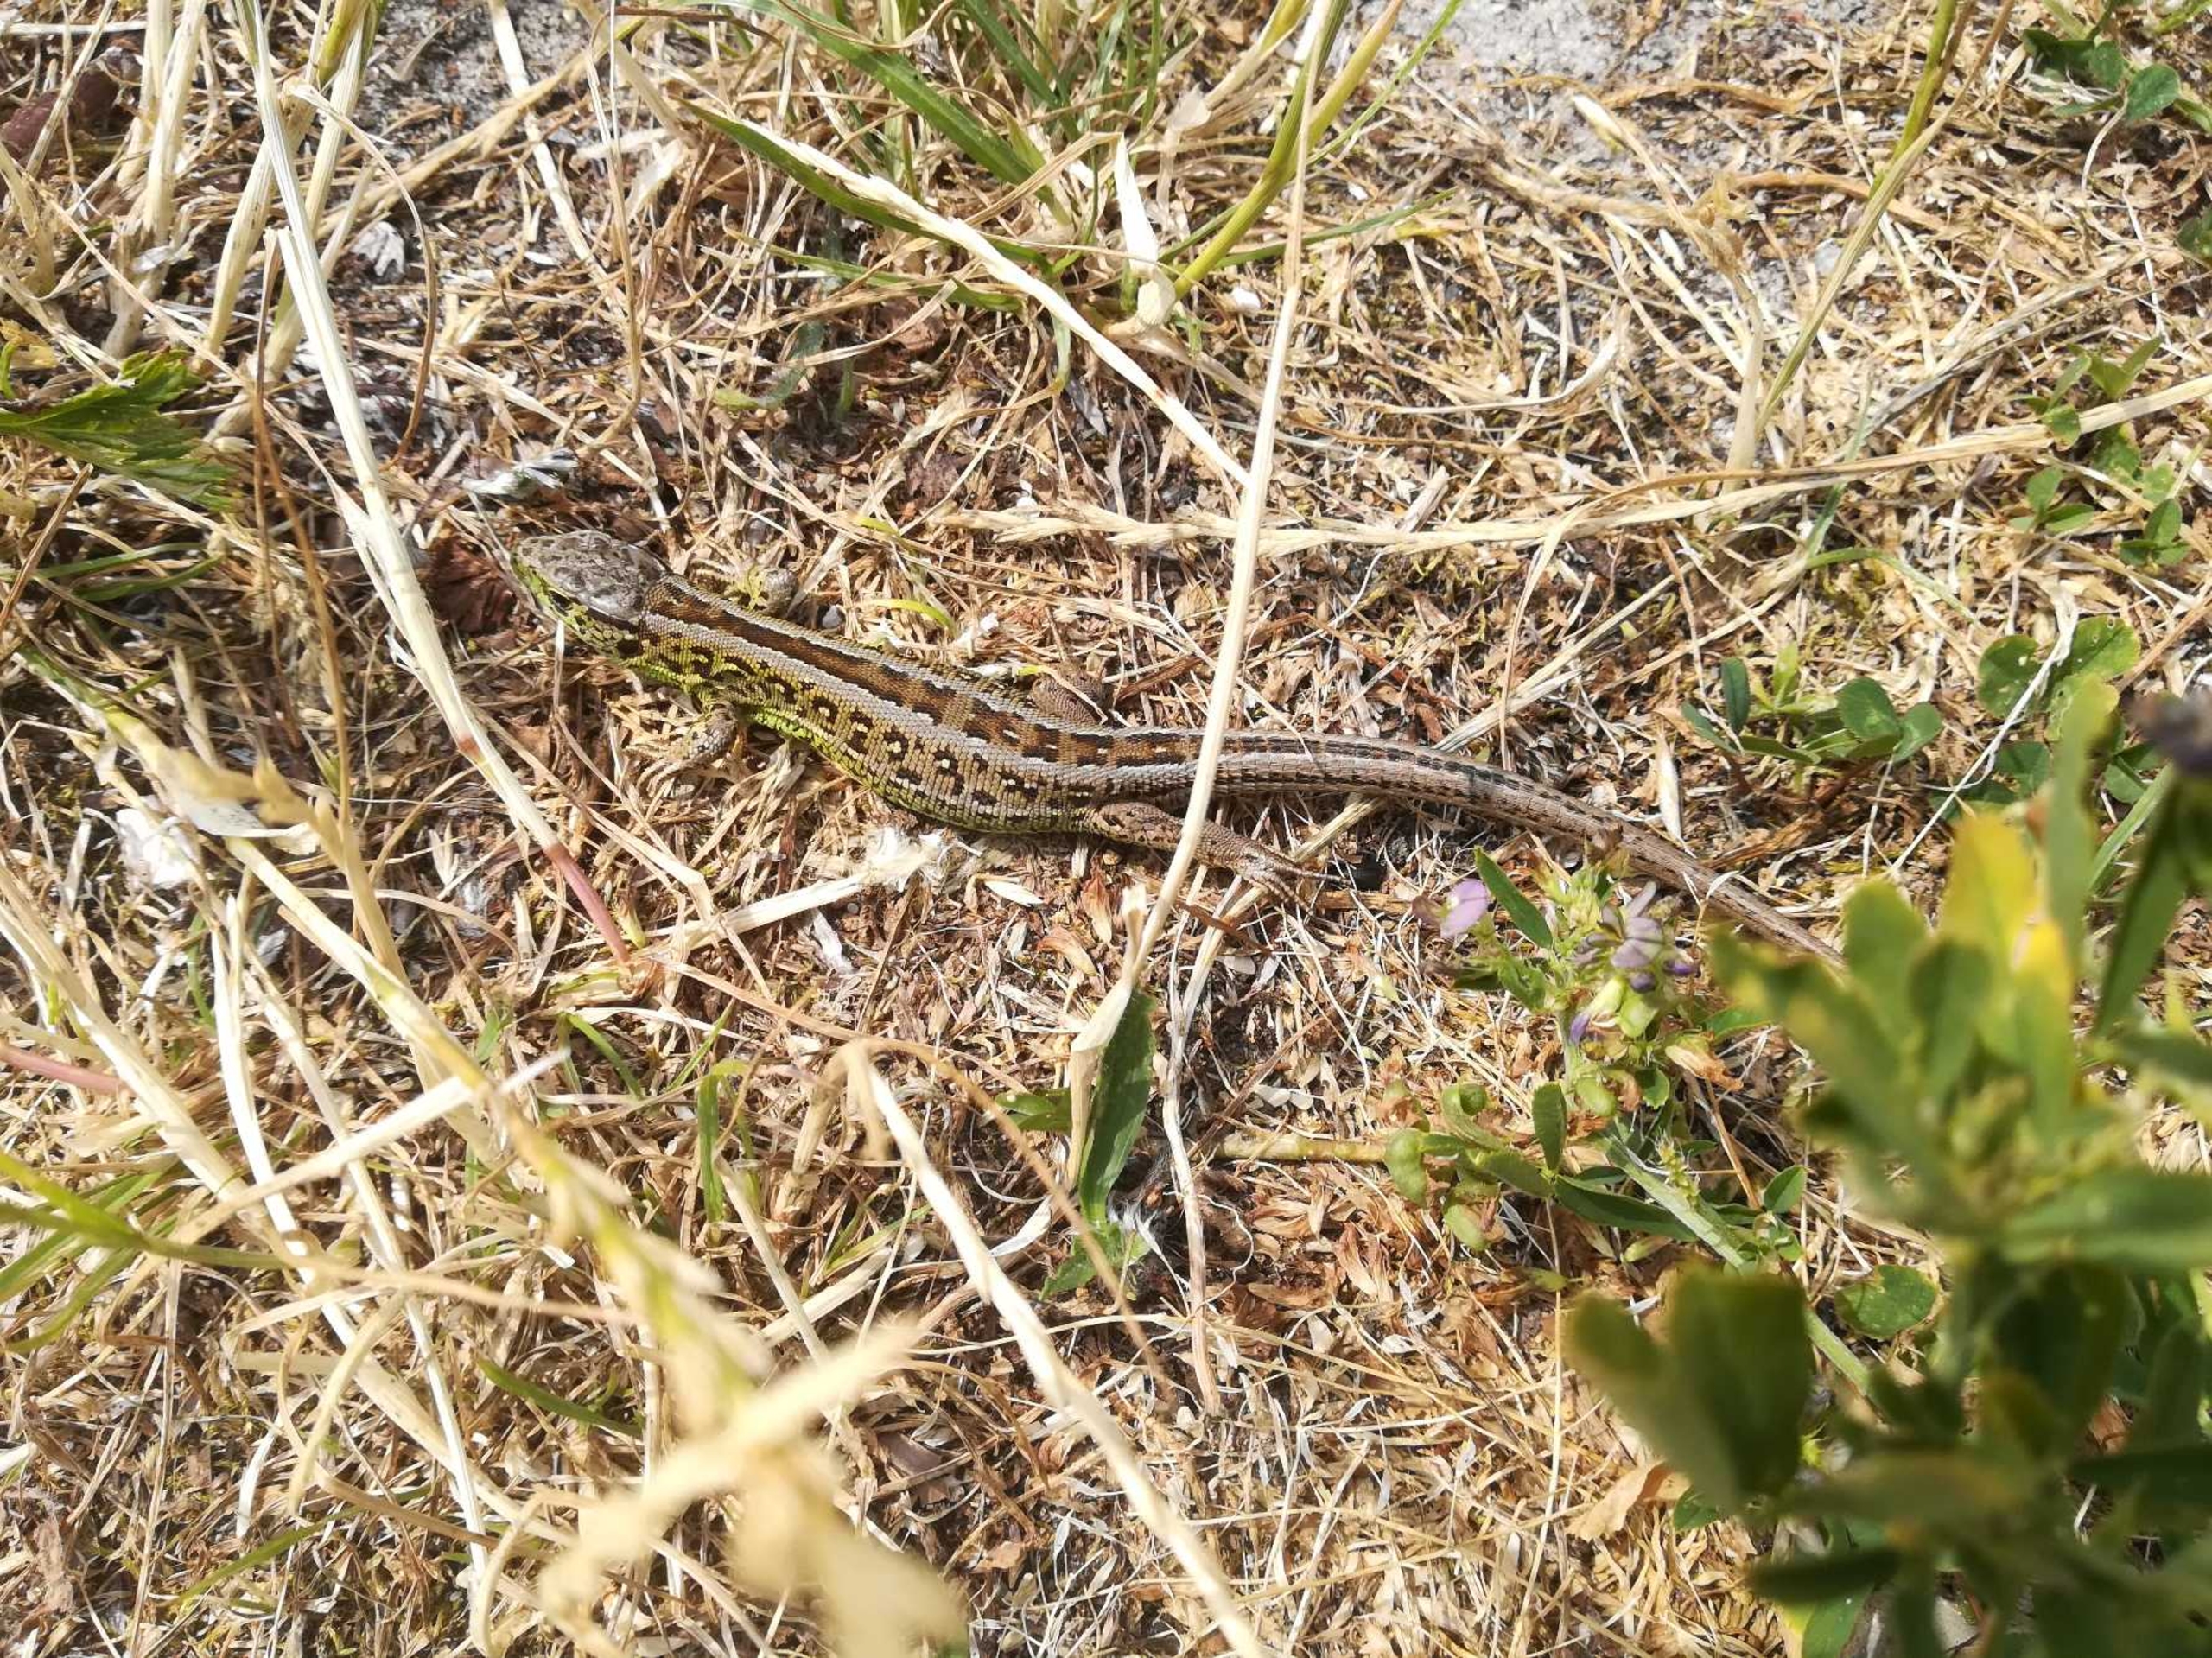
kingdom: Animalia
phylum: Chordata
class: Squamata
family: Lacertidae
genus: Lacerta
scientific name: Lacerta agilis
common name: Markfirben
